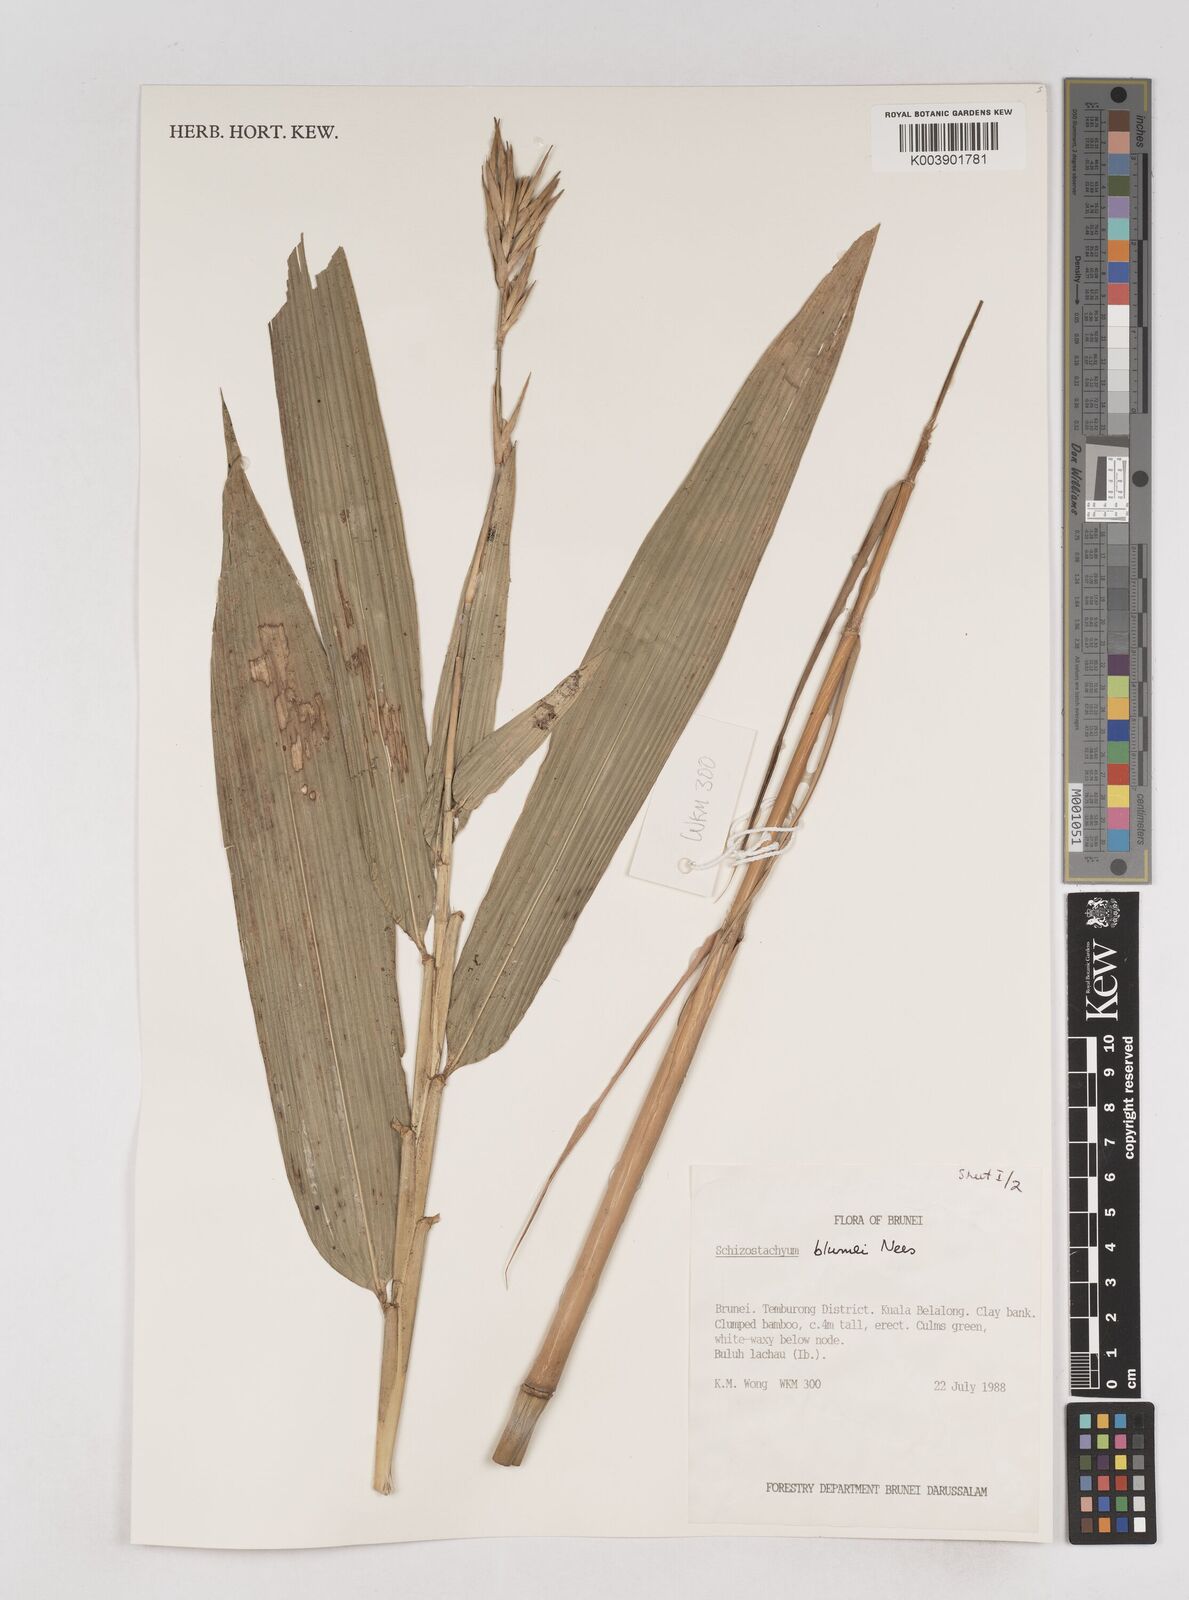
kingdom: Plantae
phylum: Tracheophyta
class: Liliopsida
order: Poales
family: Poaceae
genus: Schizostachyum
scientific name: Schizostachyum blumei
